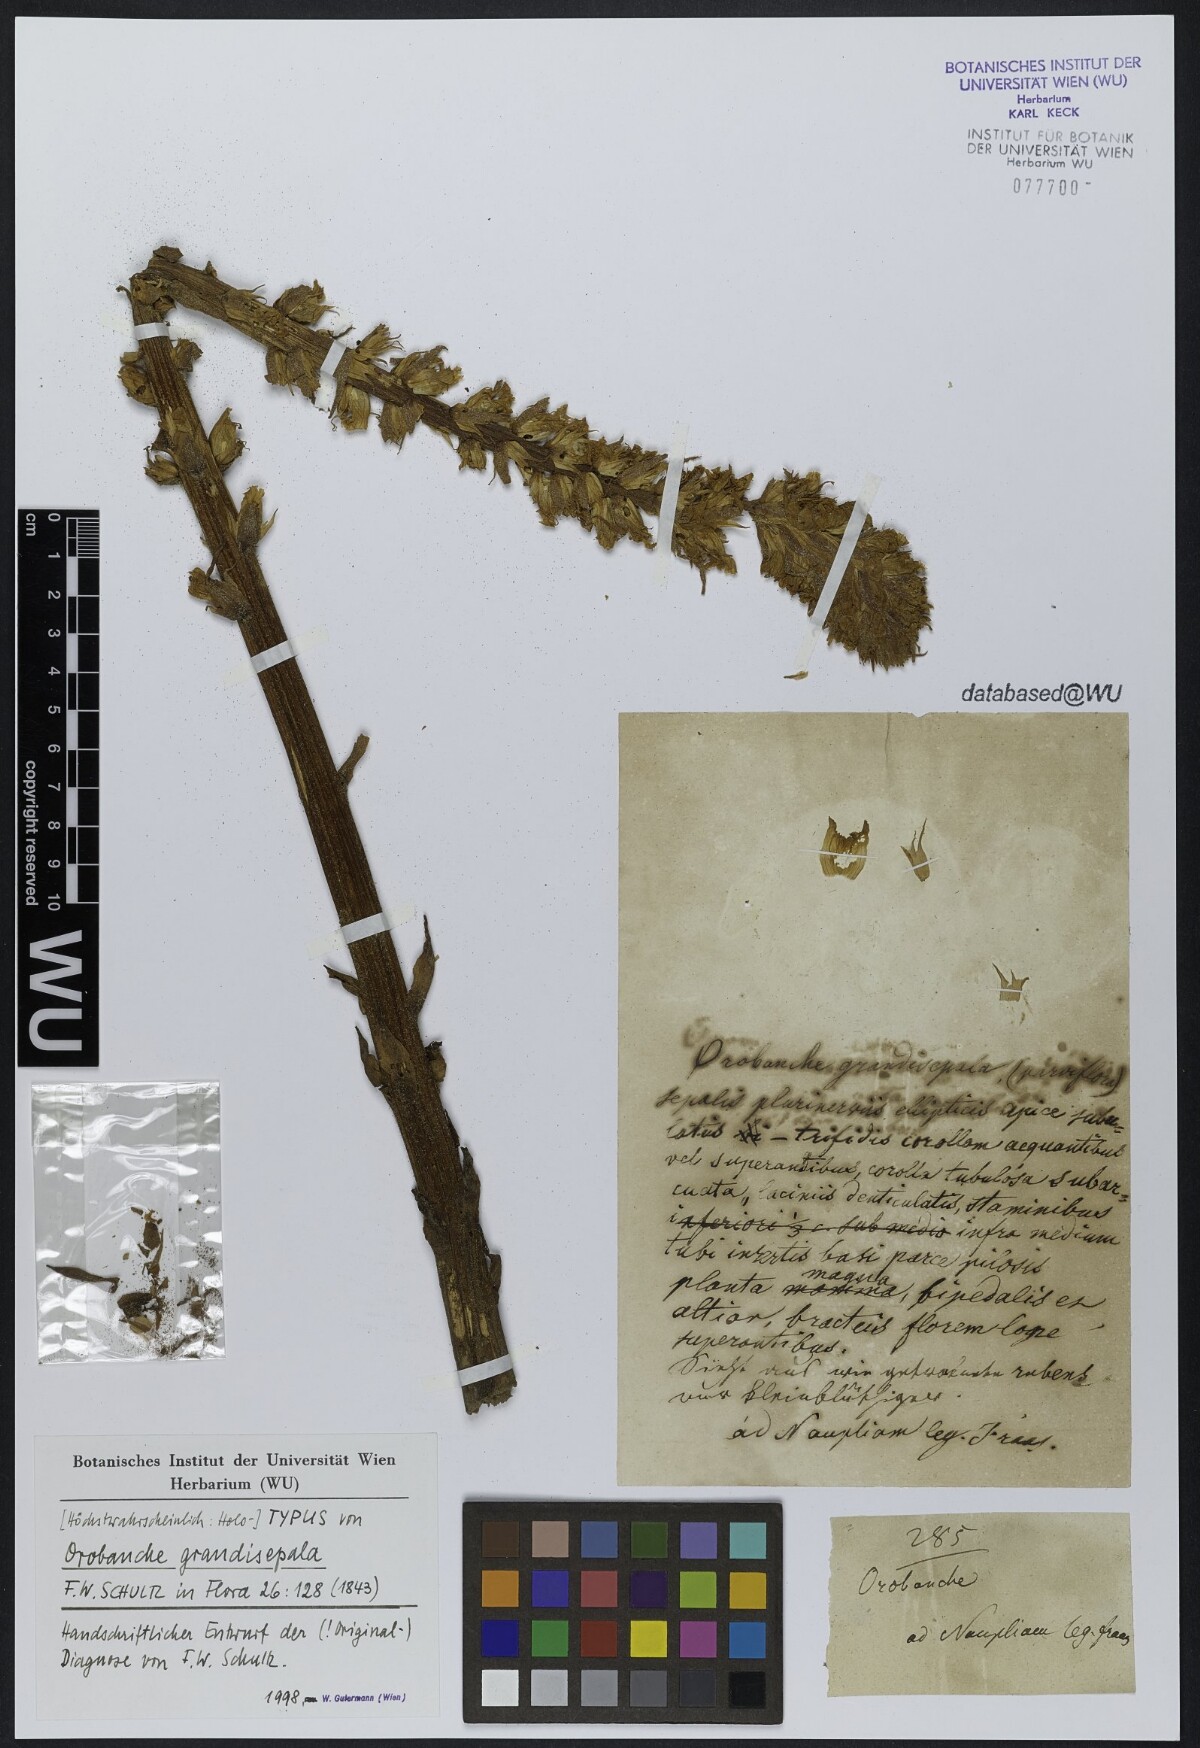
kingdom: Plantae
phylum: Tracheophyta
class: Magnoliopsida
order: Lamiales
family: Orobanchaceae
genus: Orobanche
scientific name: Orobanche canescens
